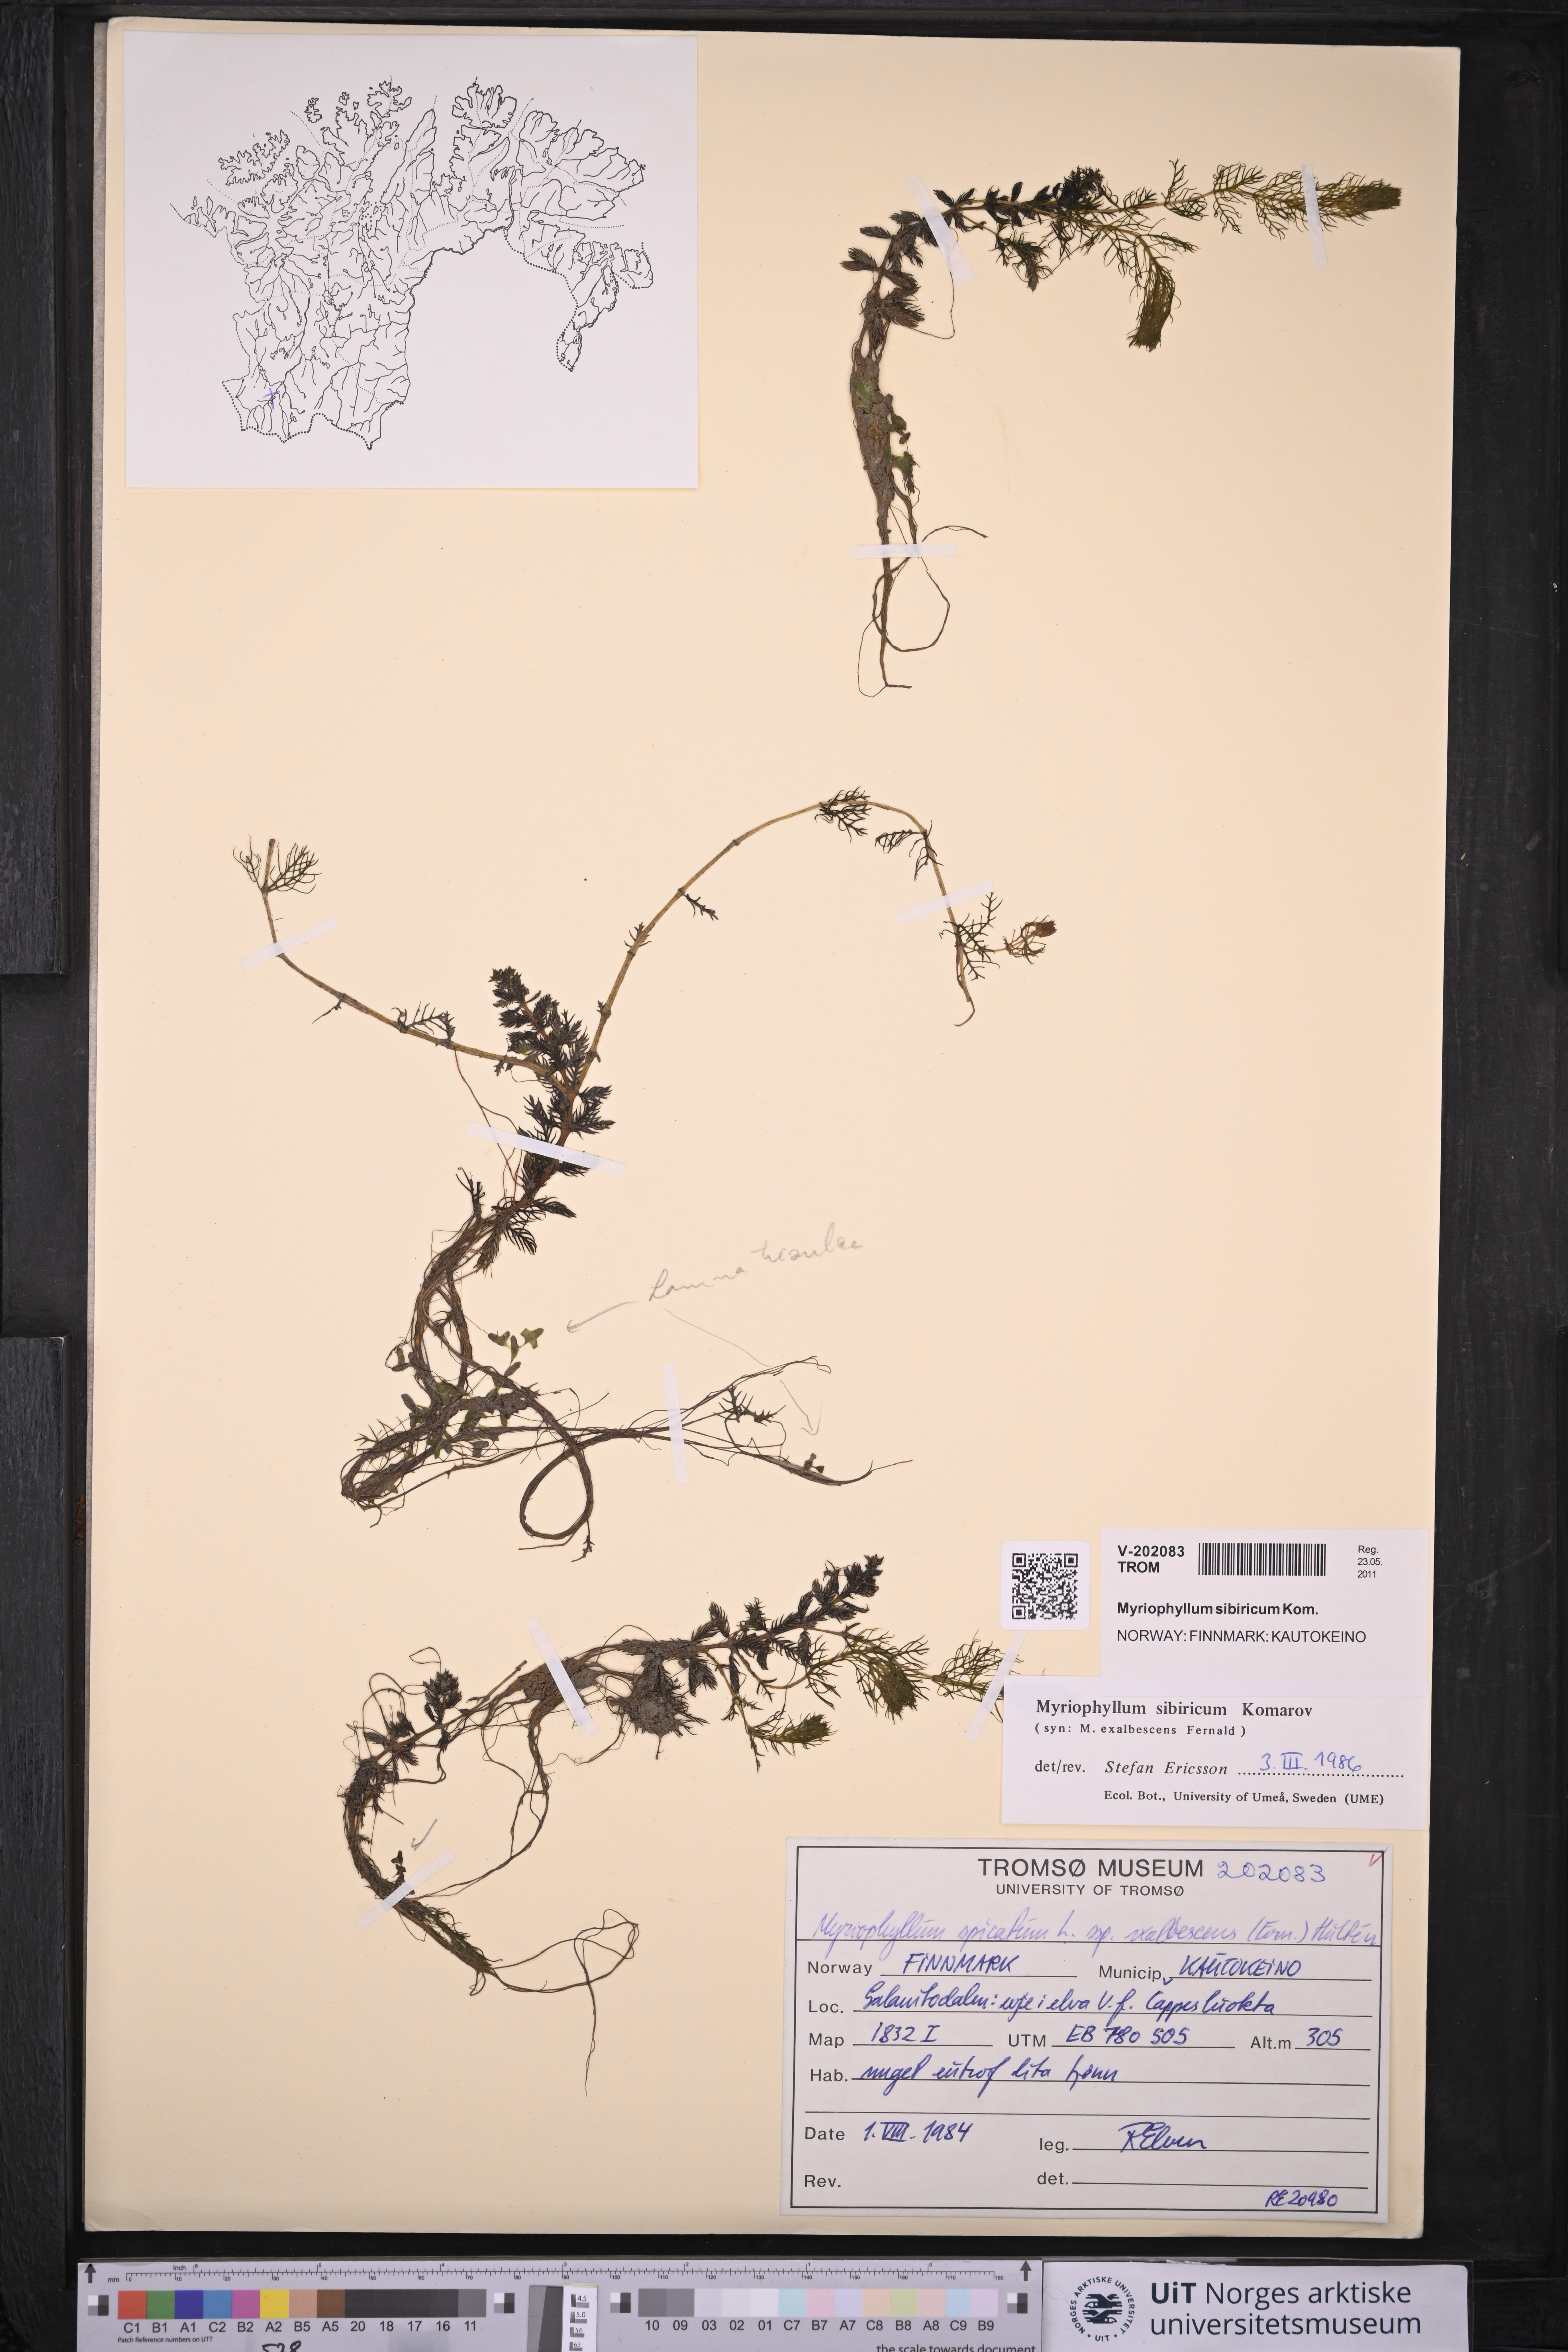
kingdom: Plantae
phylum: Tracheophyta
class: Magnoliopsida
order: Saxifragales
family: Haloragaceae
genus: Myriophyllum
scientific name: Myriophyllum sibiricum
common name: Siberian water-milfoil
